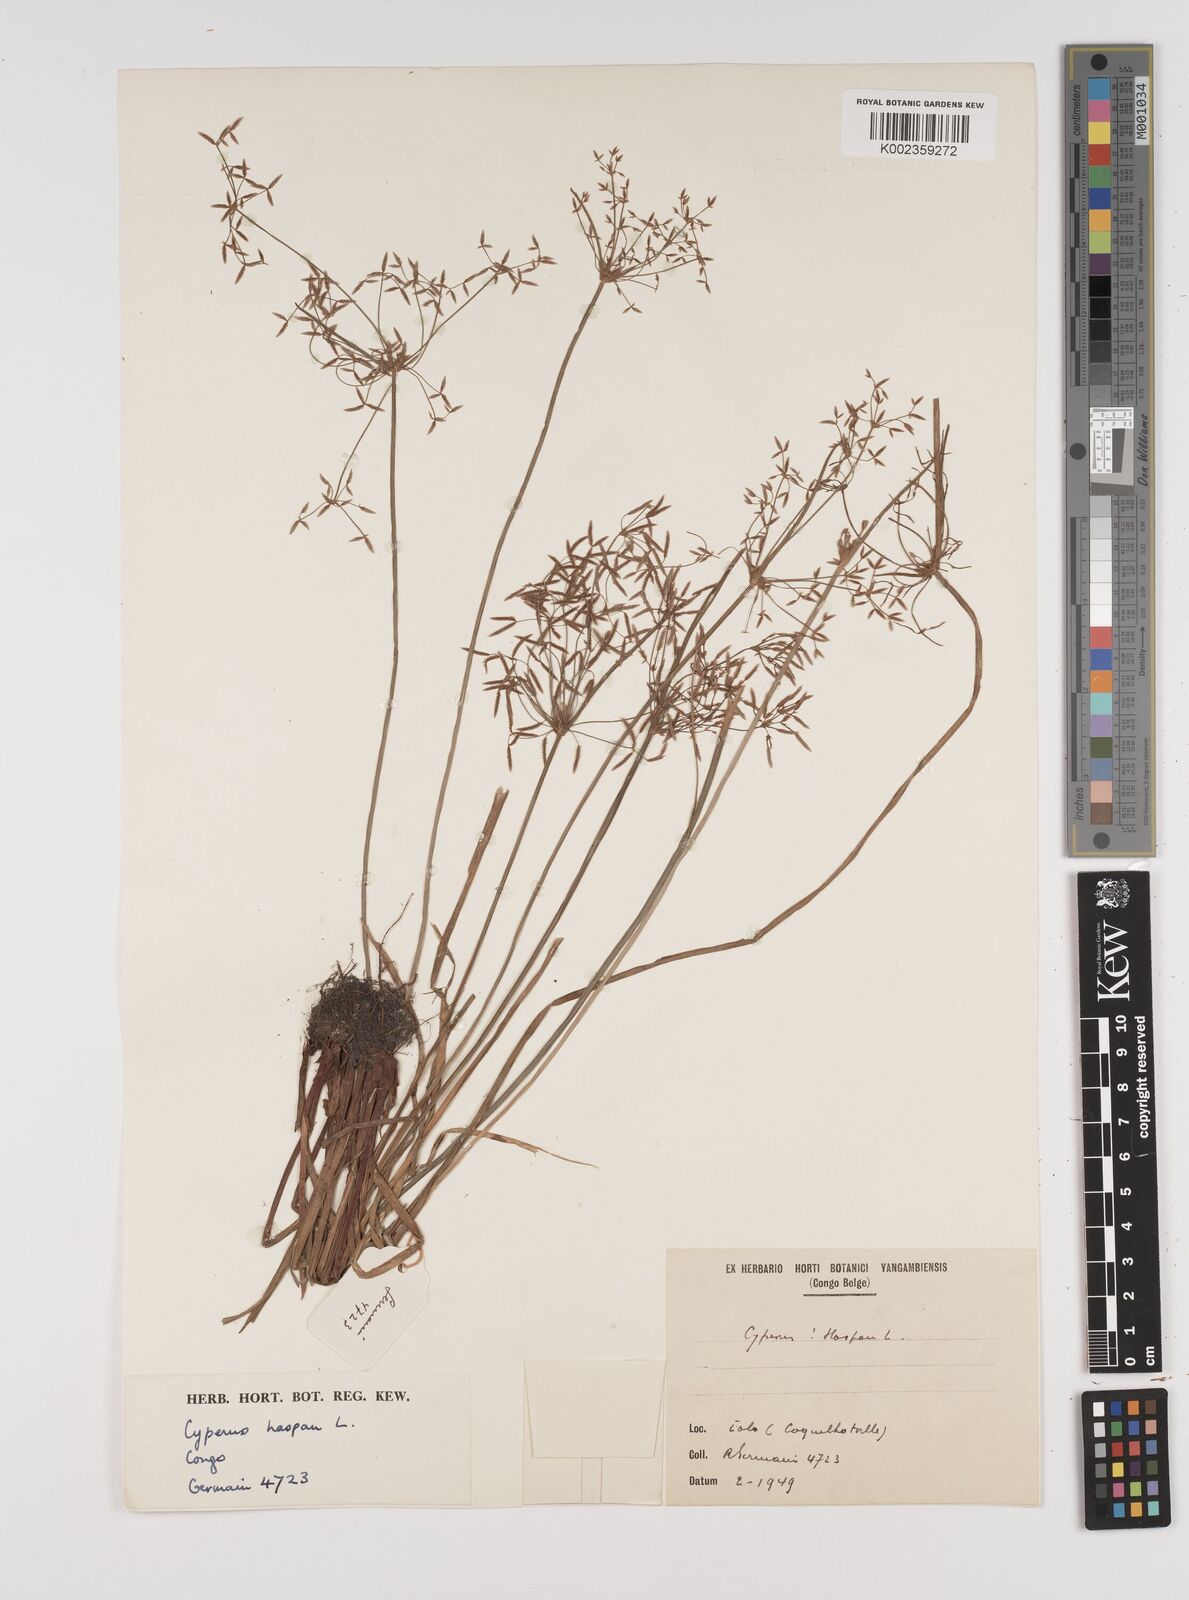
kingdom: Plantae
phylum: Tracheophyta
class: Liliopsida
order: Poales
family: Cyperaceae
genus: Cyperus
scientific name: Cyperus haspan
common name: Haspan flatsedge
